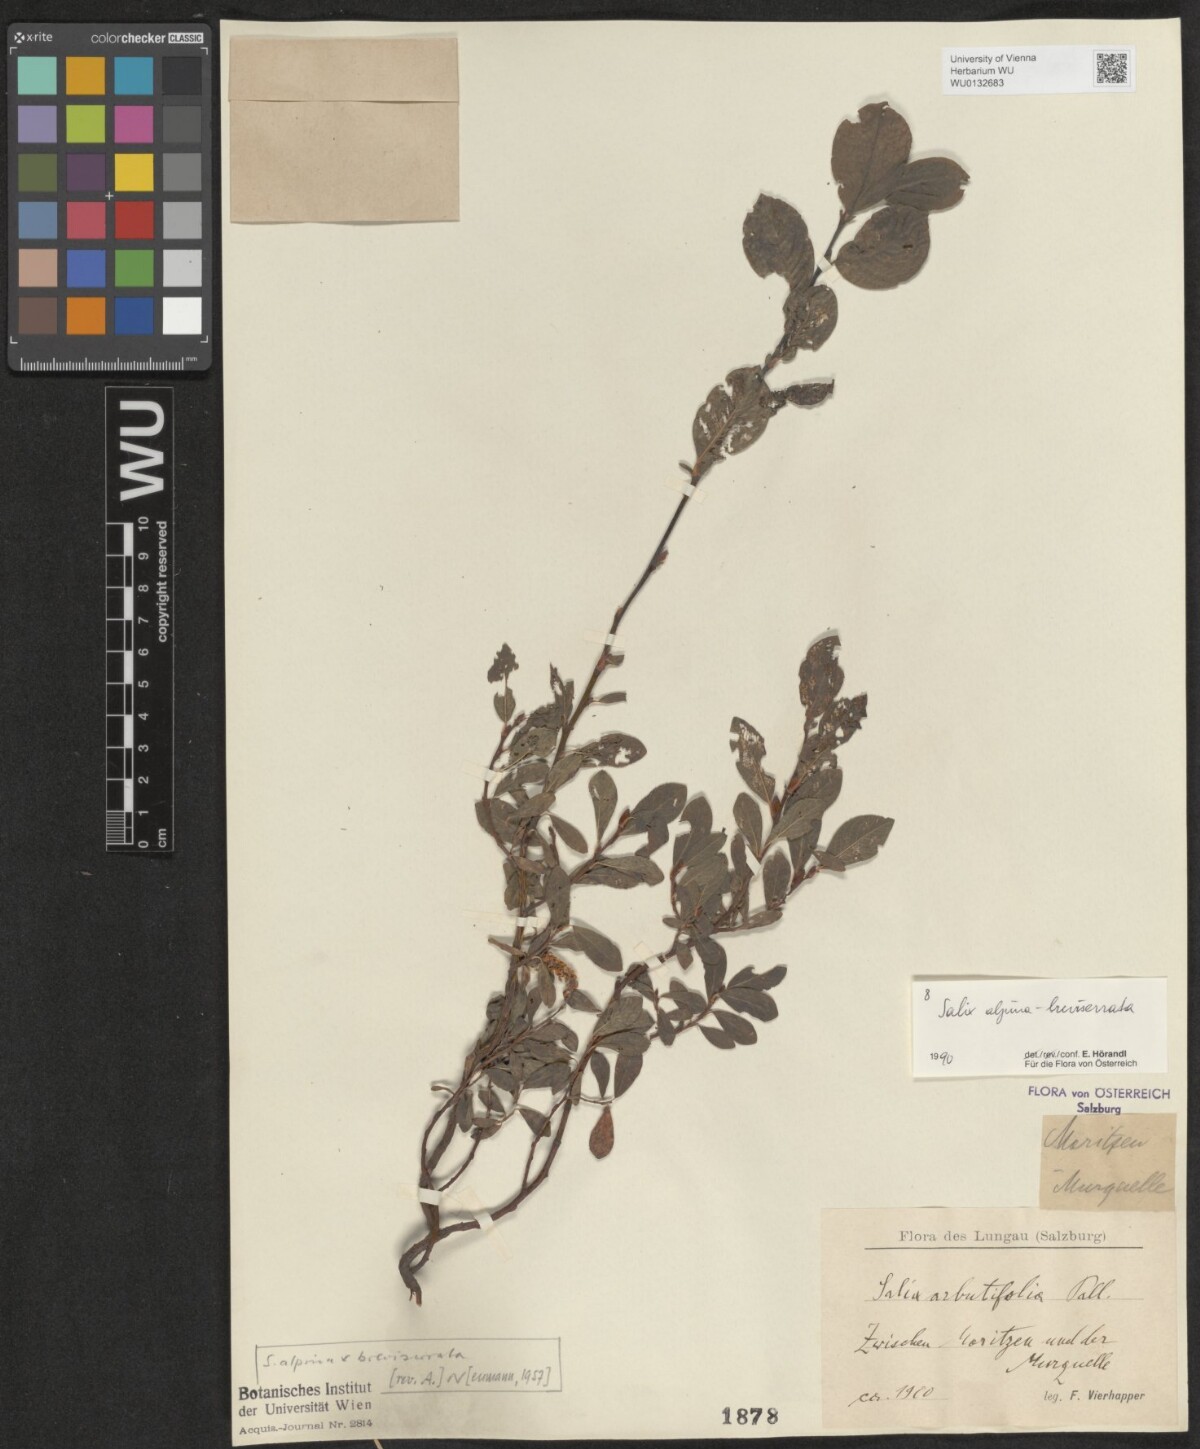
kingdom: Plantae
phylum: Tracheophyta
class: Magnoliopsida
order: Malpighiales
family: Salicaceae
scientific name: Salicaceae
